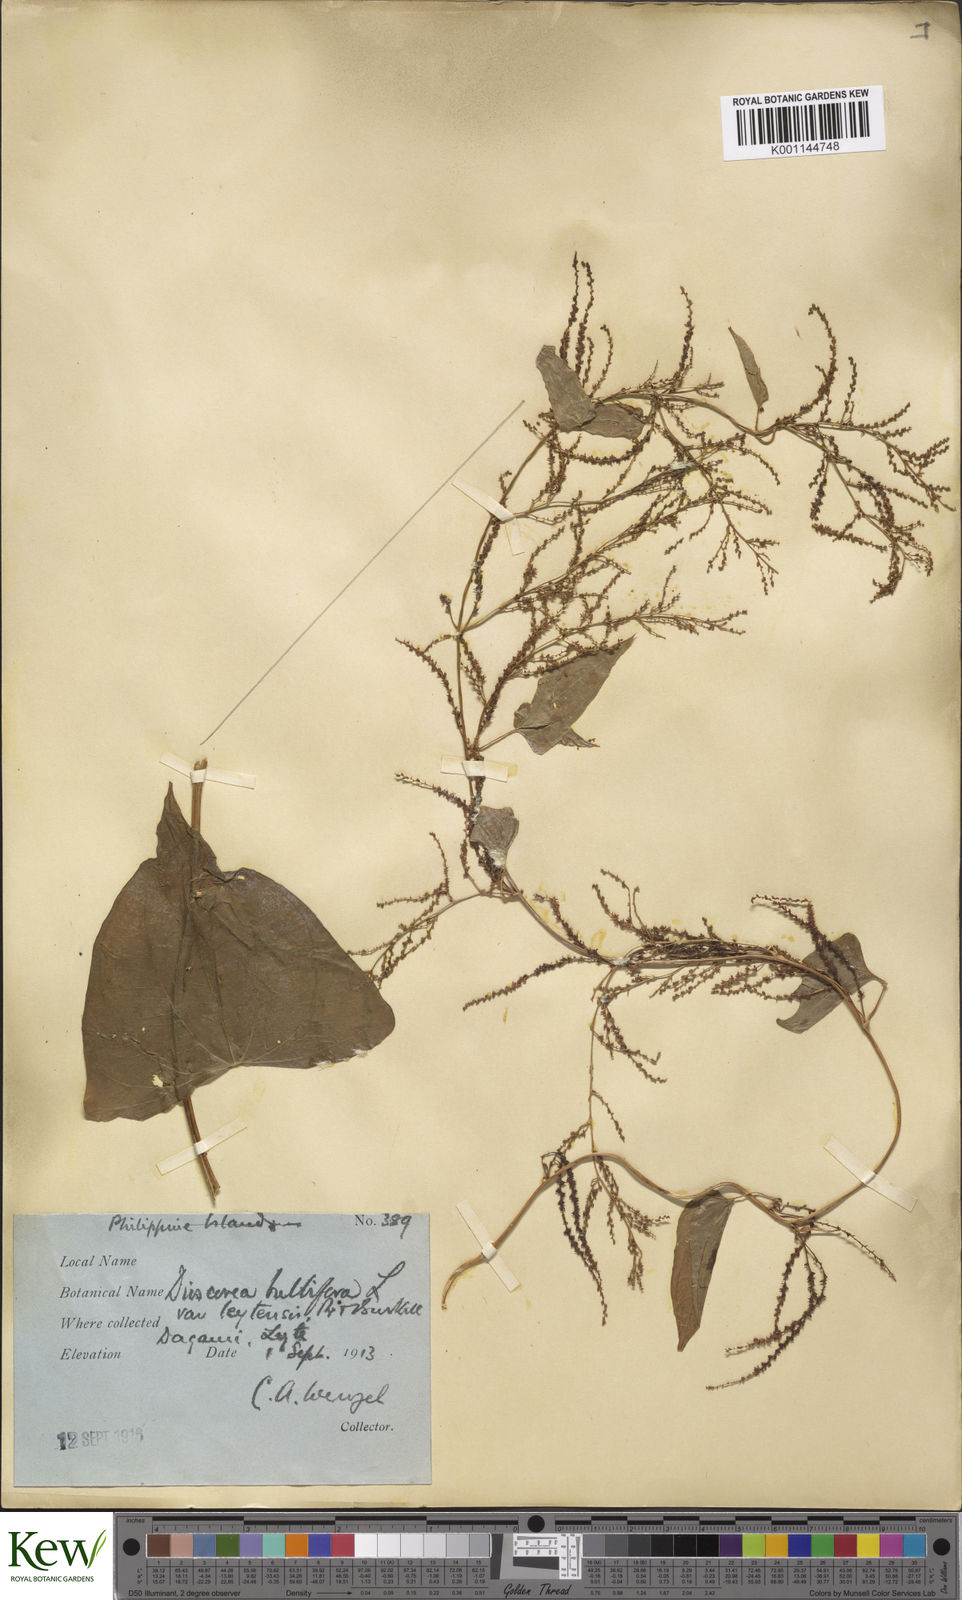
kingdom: Plantae
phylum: Tracheophyta
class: Liliopsida
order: Dioscoreales
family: Dioscoreaceae
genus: Dioscorea
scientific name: Dioscorea bulbifera
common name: Air yam
